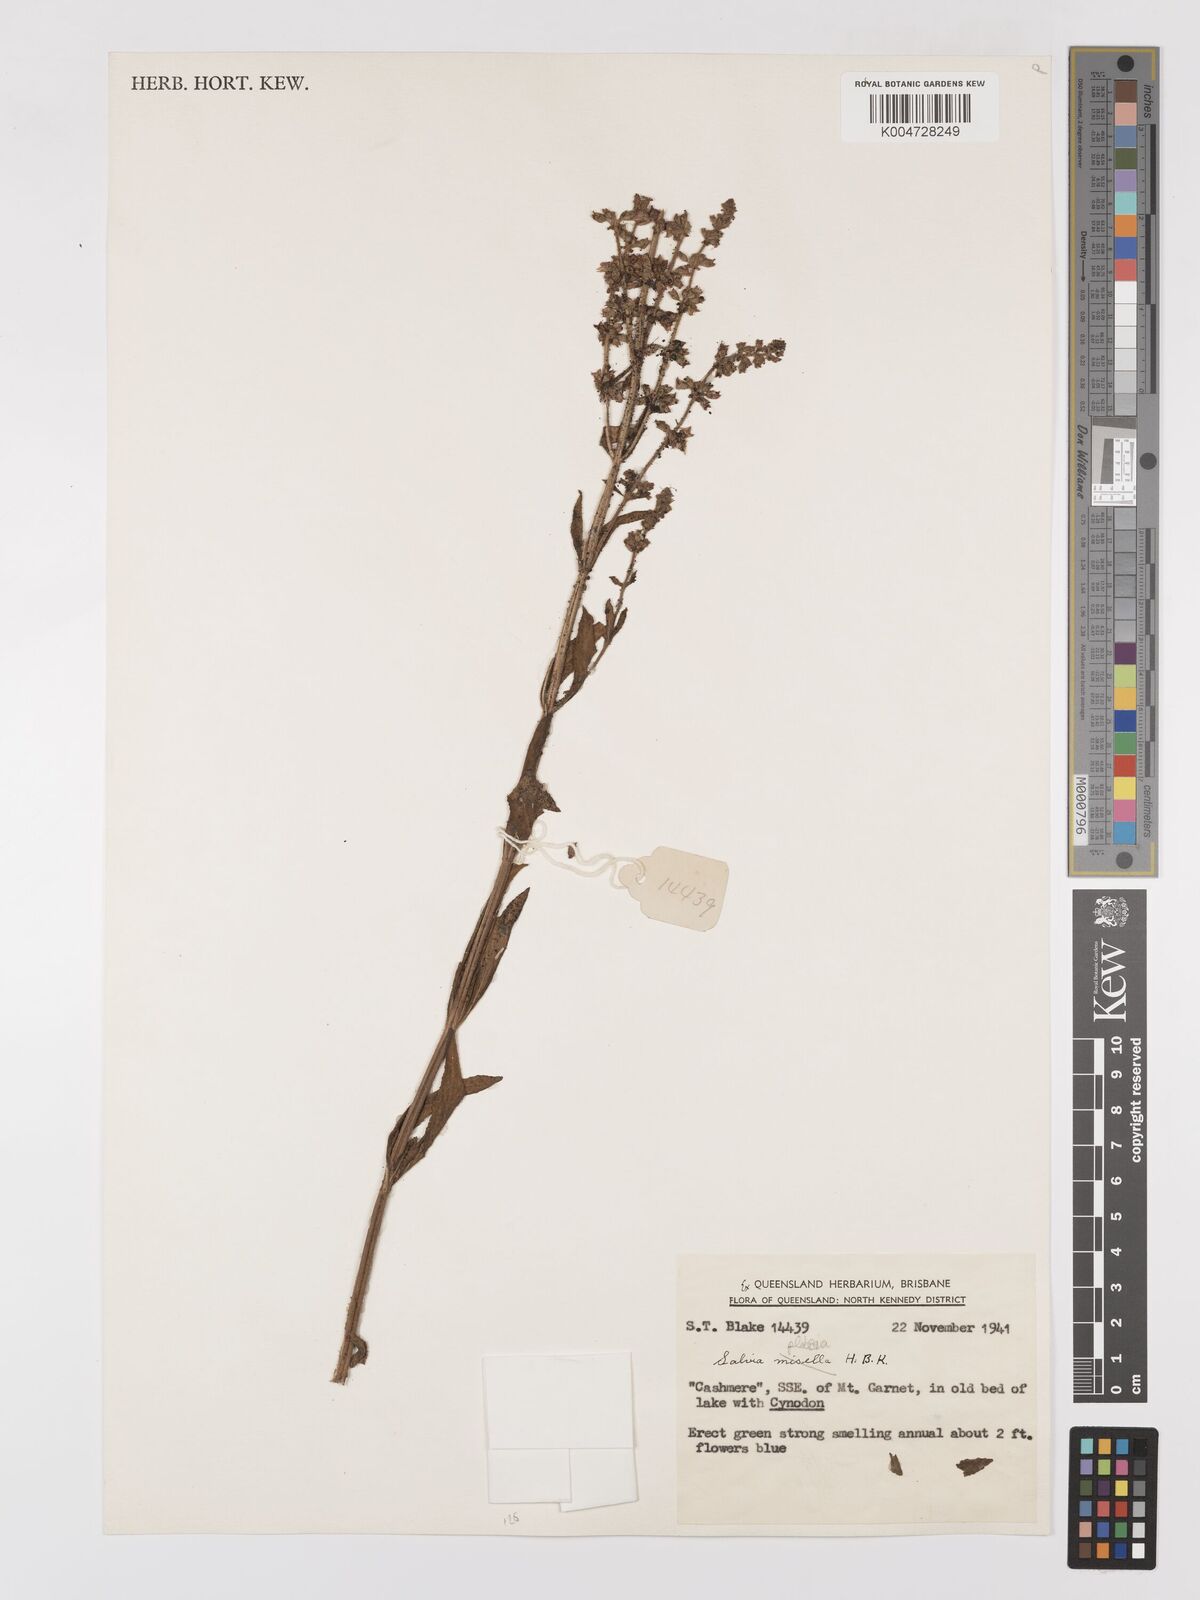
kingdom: Plantae
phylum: Tracheophyta
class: Magnoliopsida
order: Lamiales
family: Lamiaceae
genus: Salvia
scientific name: Salvia plebeia
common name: Australian sage
